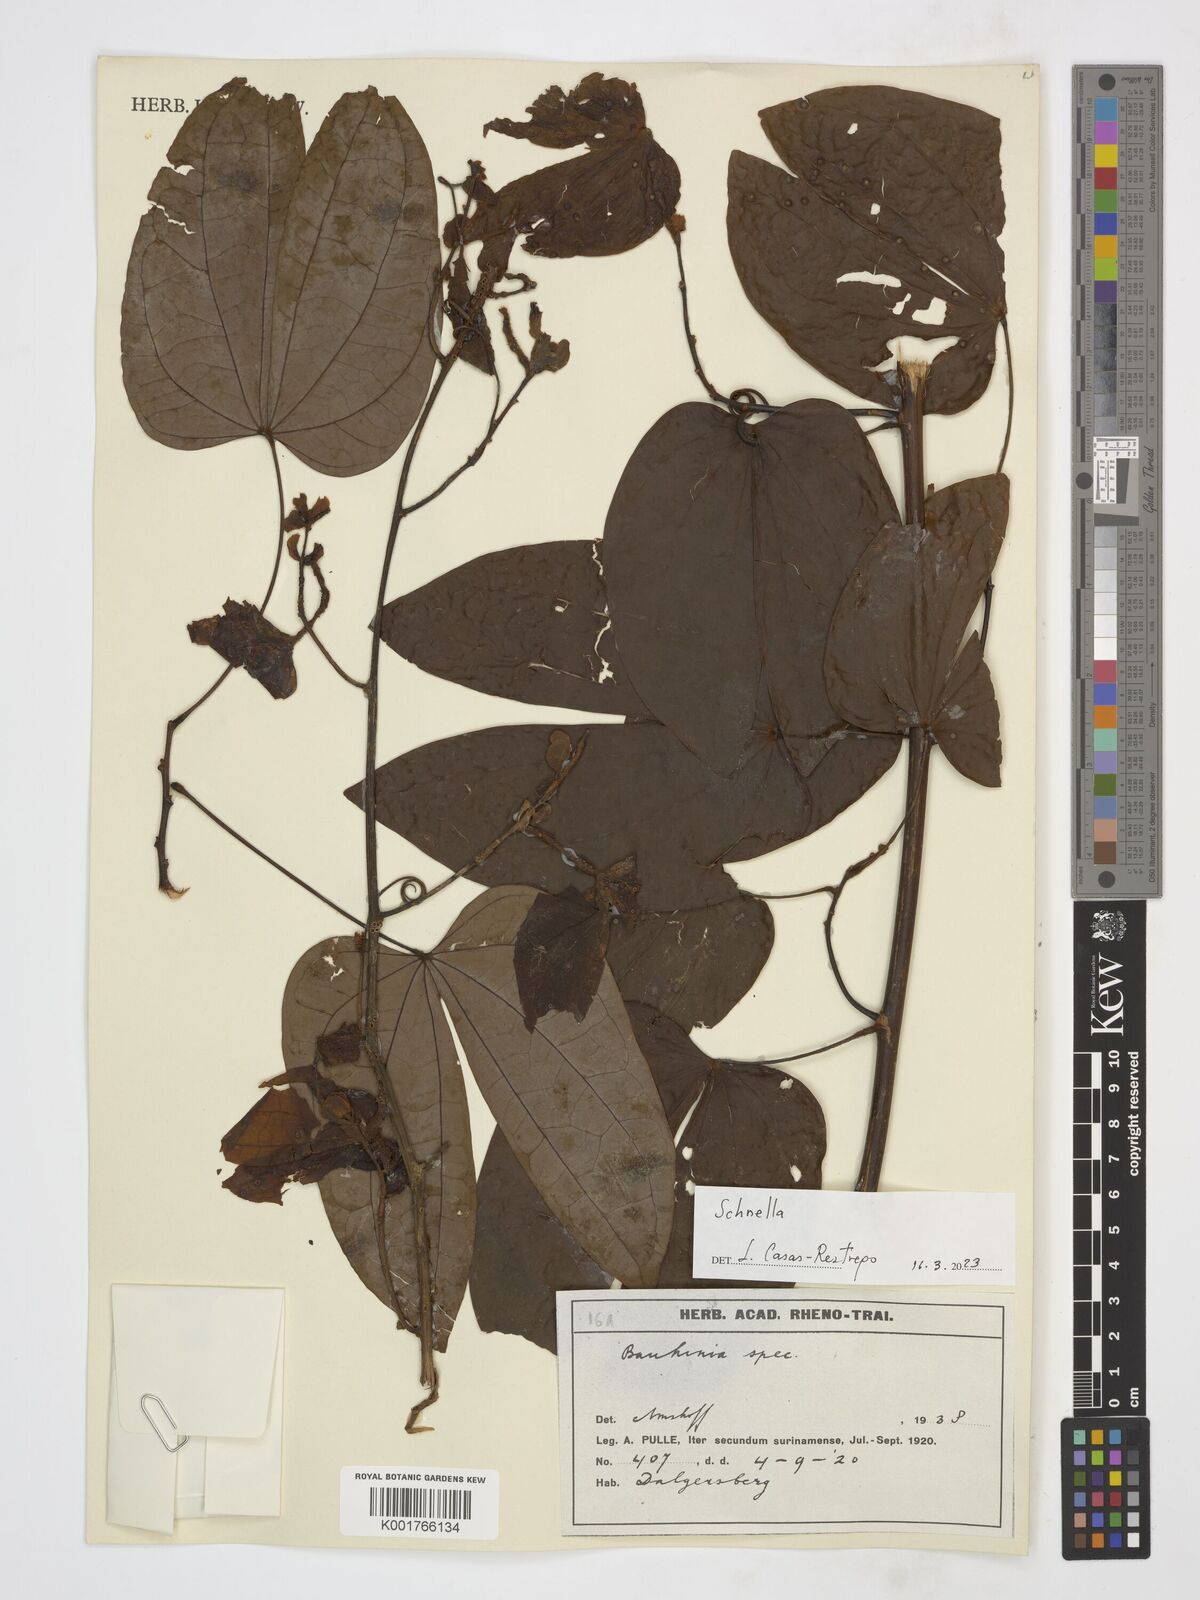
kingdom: Plantae
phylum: Tracheophyta
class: Magnoliopsida
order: Fabales
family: Fabaceae
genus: Schnella
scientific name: Schnella
